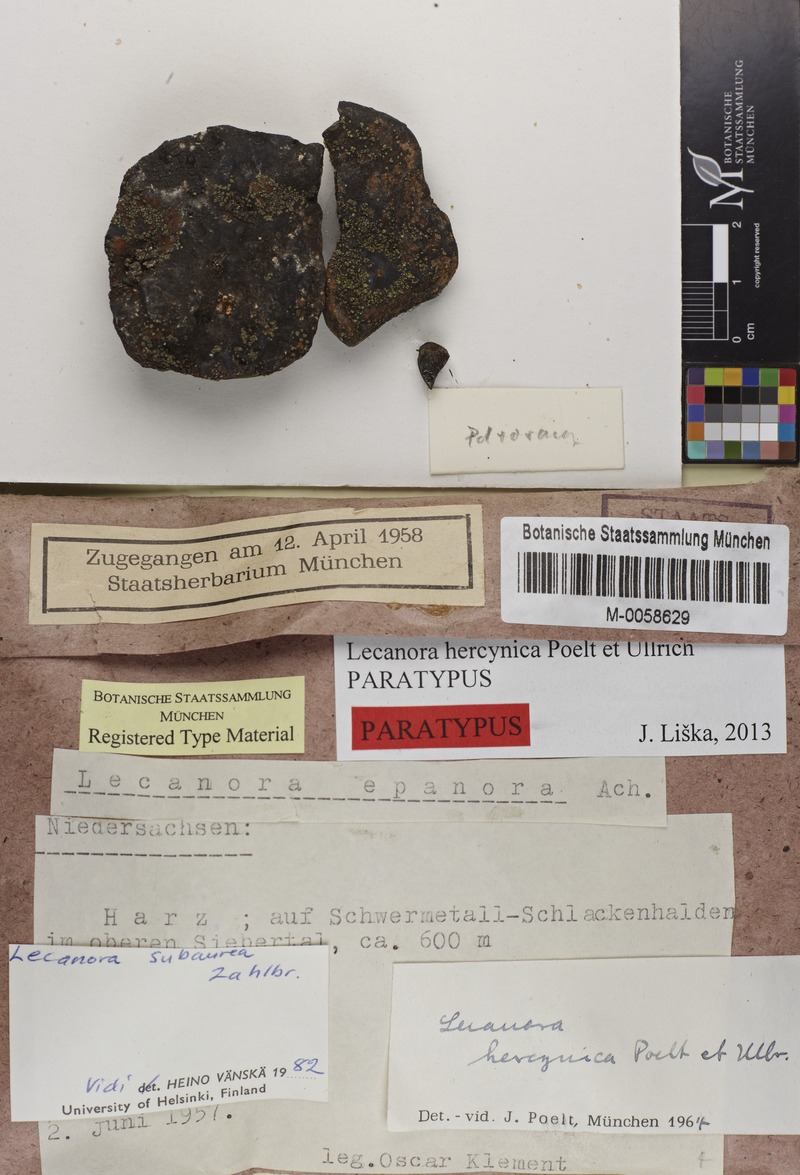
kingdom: Fungi
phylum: Ascomycota
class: Lecanoromycetes
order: Lecanorales
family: Lecanoraceae
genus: Lecanora
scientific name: Lecanora subaurea
